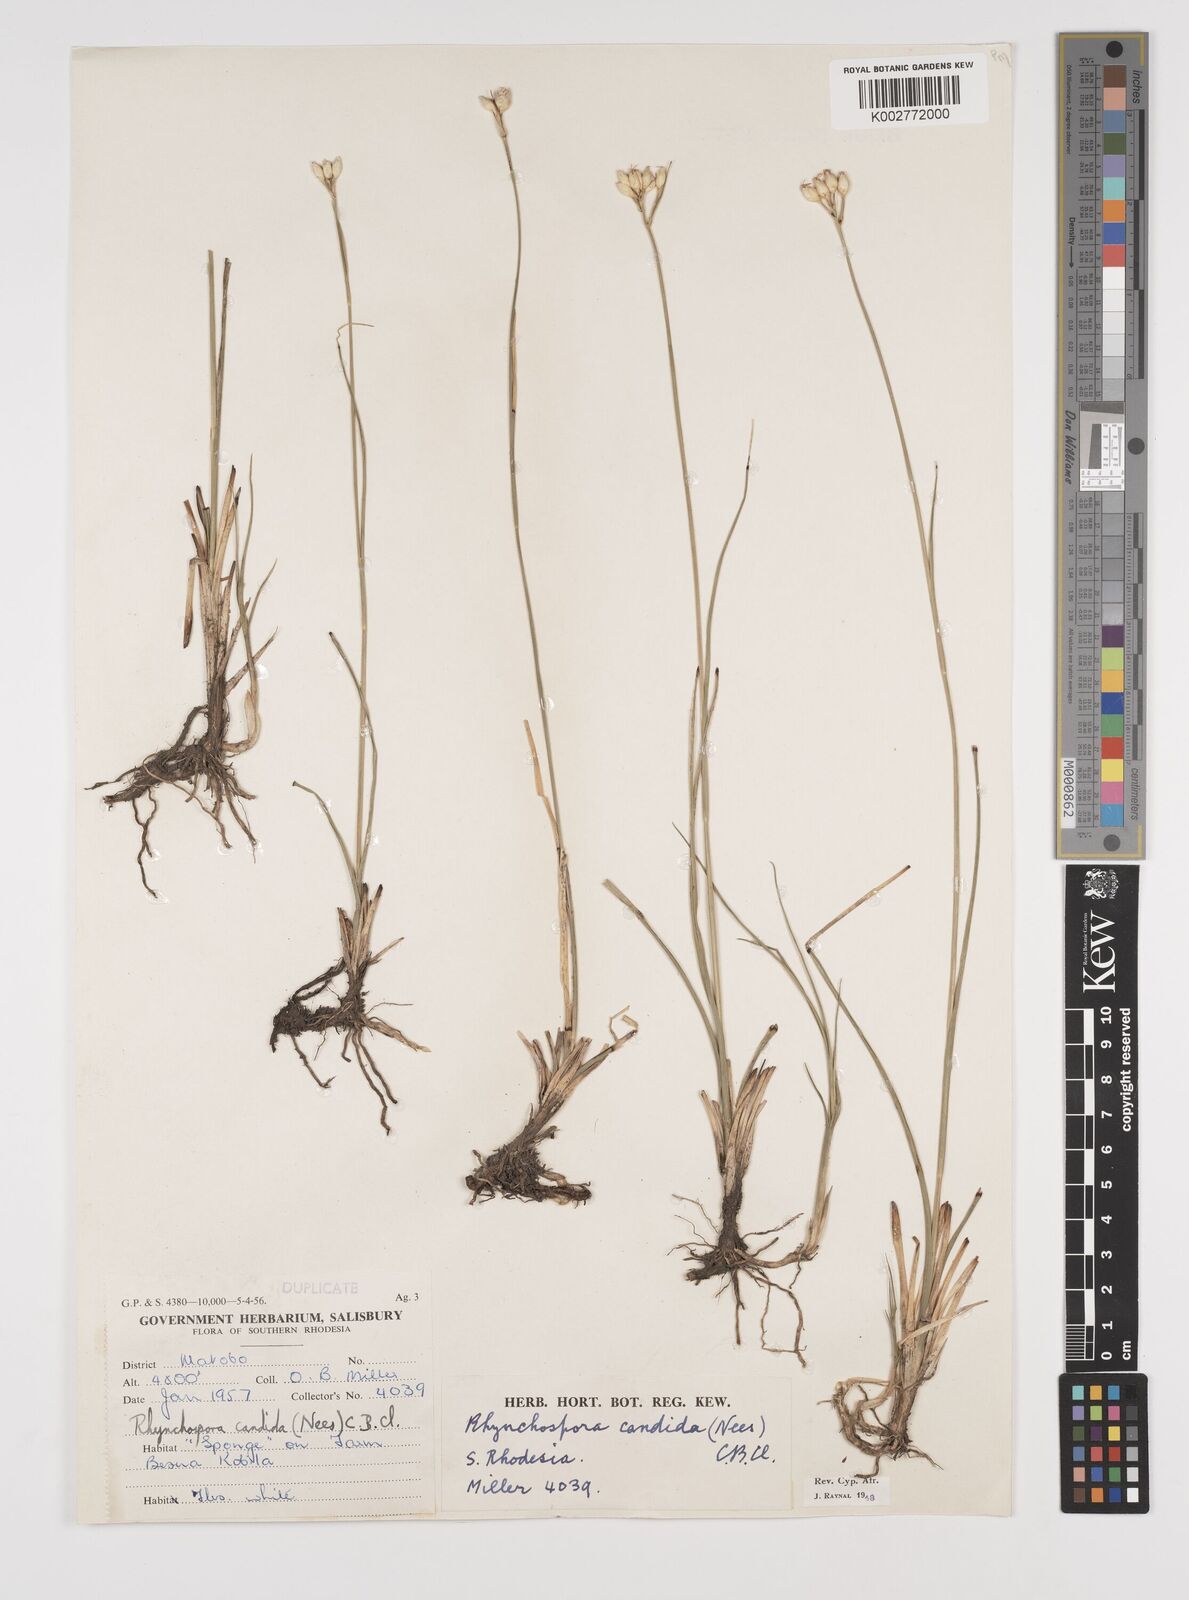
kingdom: Plantae
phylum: Tracheophyta
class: Liliopsida
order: Poales
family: Cyperaceae
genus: Rhynchospora
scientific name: Rhynchospora candida
